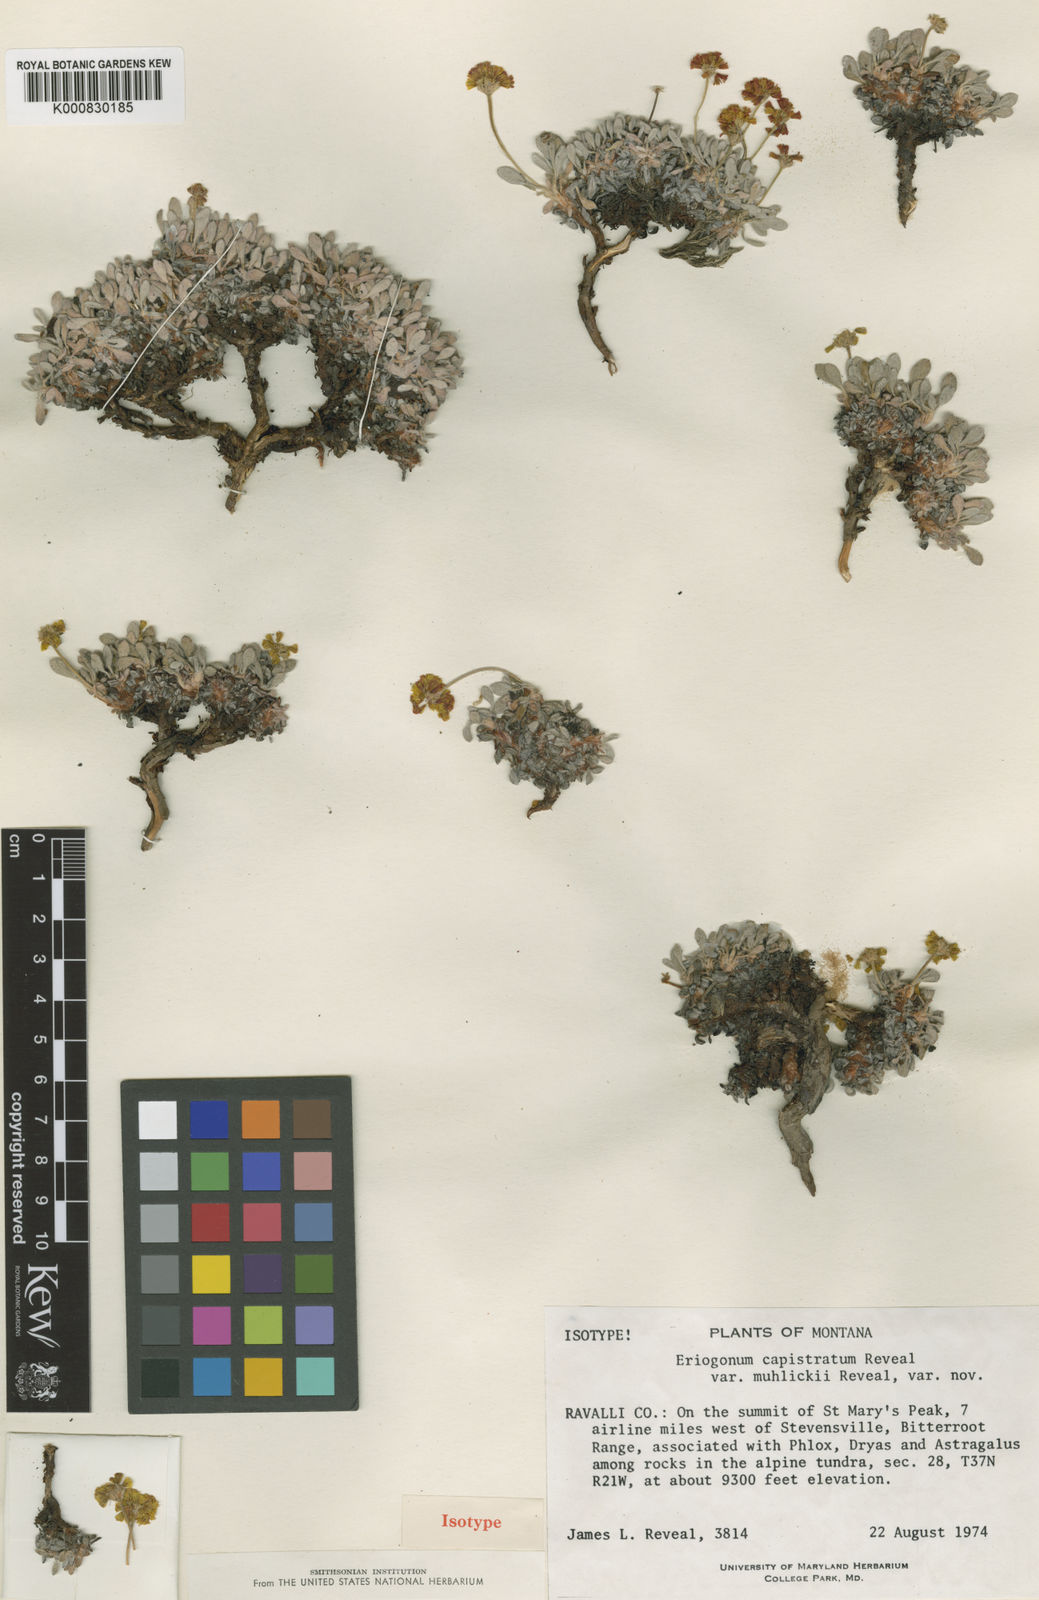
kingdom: Plantae
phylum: Tracheophyta
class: Magnoliopsida
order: Caryophyllales
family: Polygonaceae
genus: Eriogonum
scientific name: Eriogonum crosbyae
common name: Crosby's wild buckwheat
